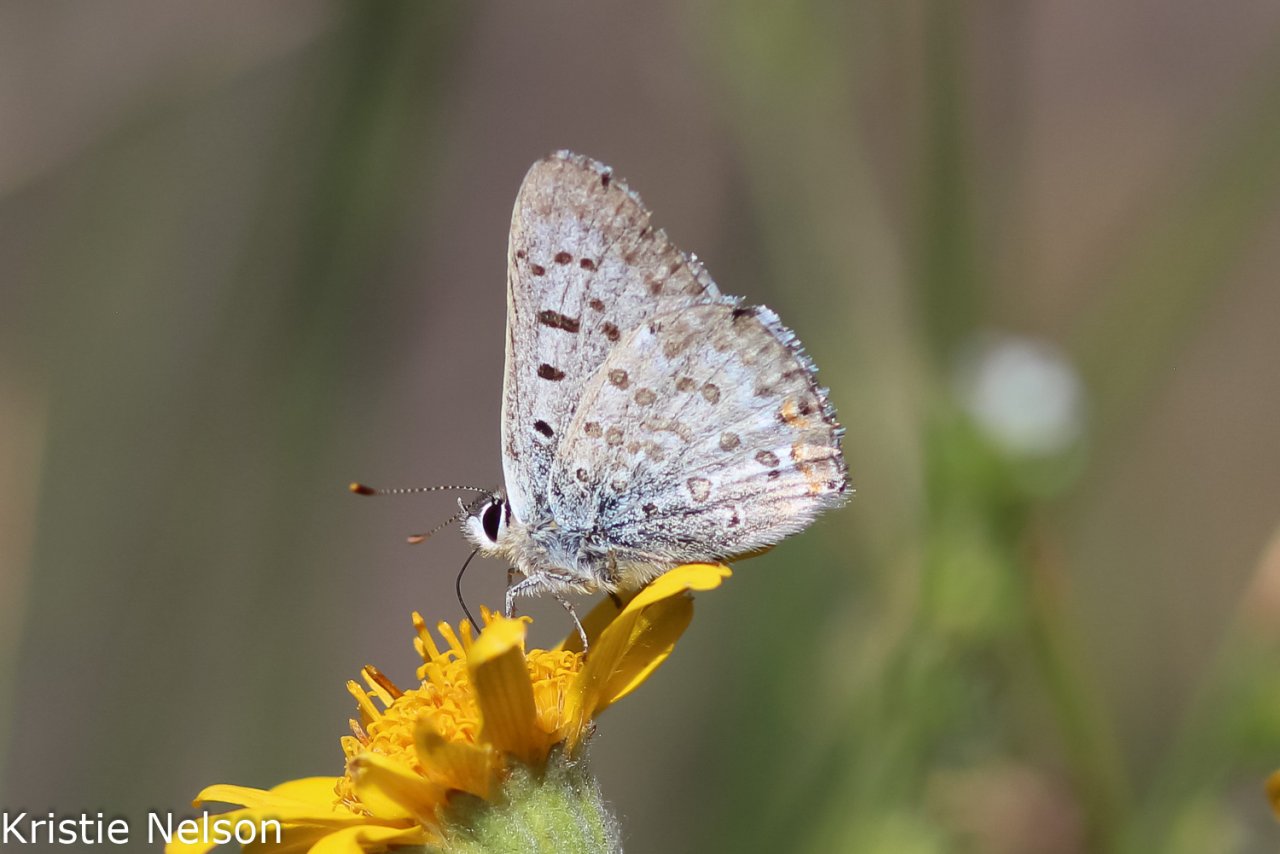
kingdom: Animalia
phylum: Arthropoda
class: Insecta
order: Lepidoptera
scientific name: Lepidoptera
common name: Butterflies
